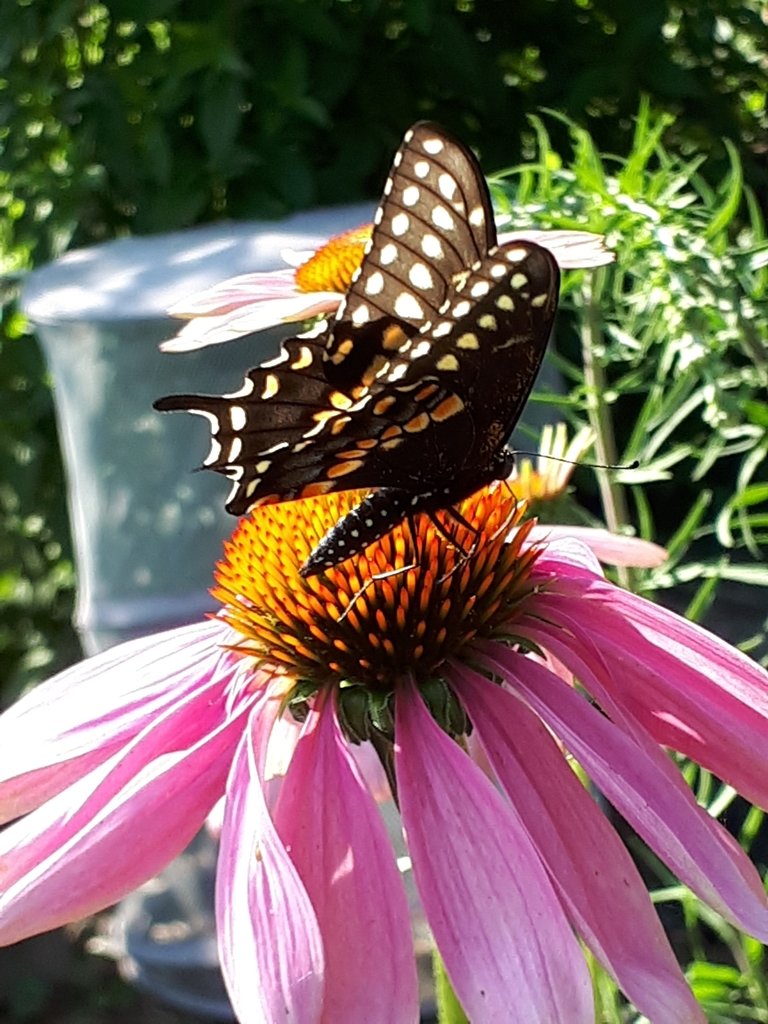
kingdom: Animalia
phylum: Arthropoda
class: Insecta
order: Lepidoptera
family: Papilionidae
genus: Papilio
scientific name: Papilio polyxenes
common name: Black Swallowtail
